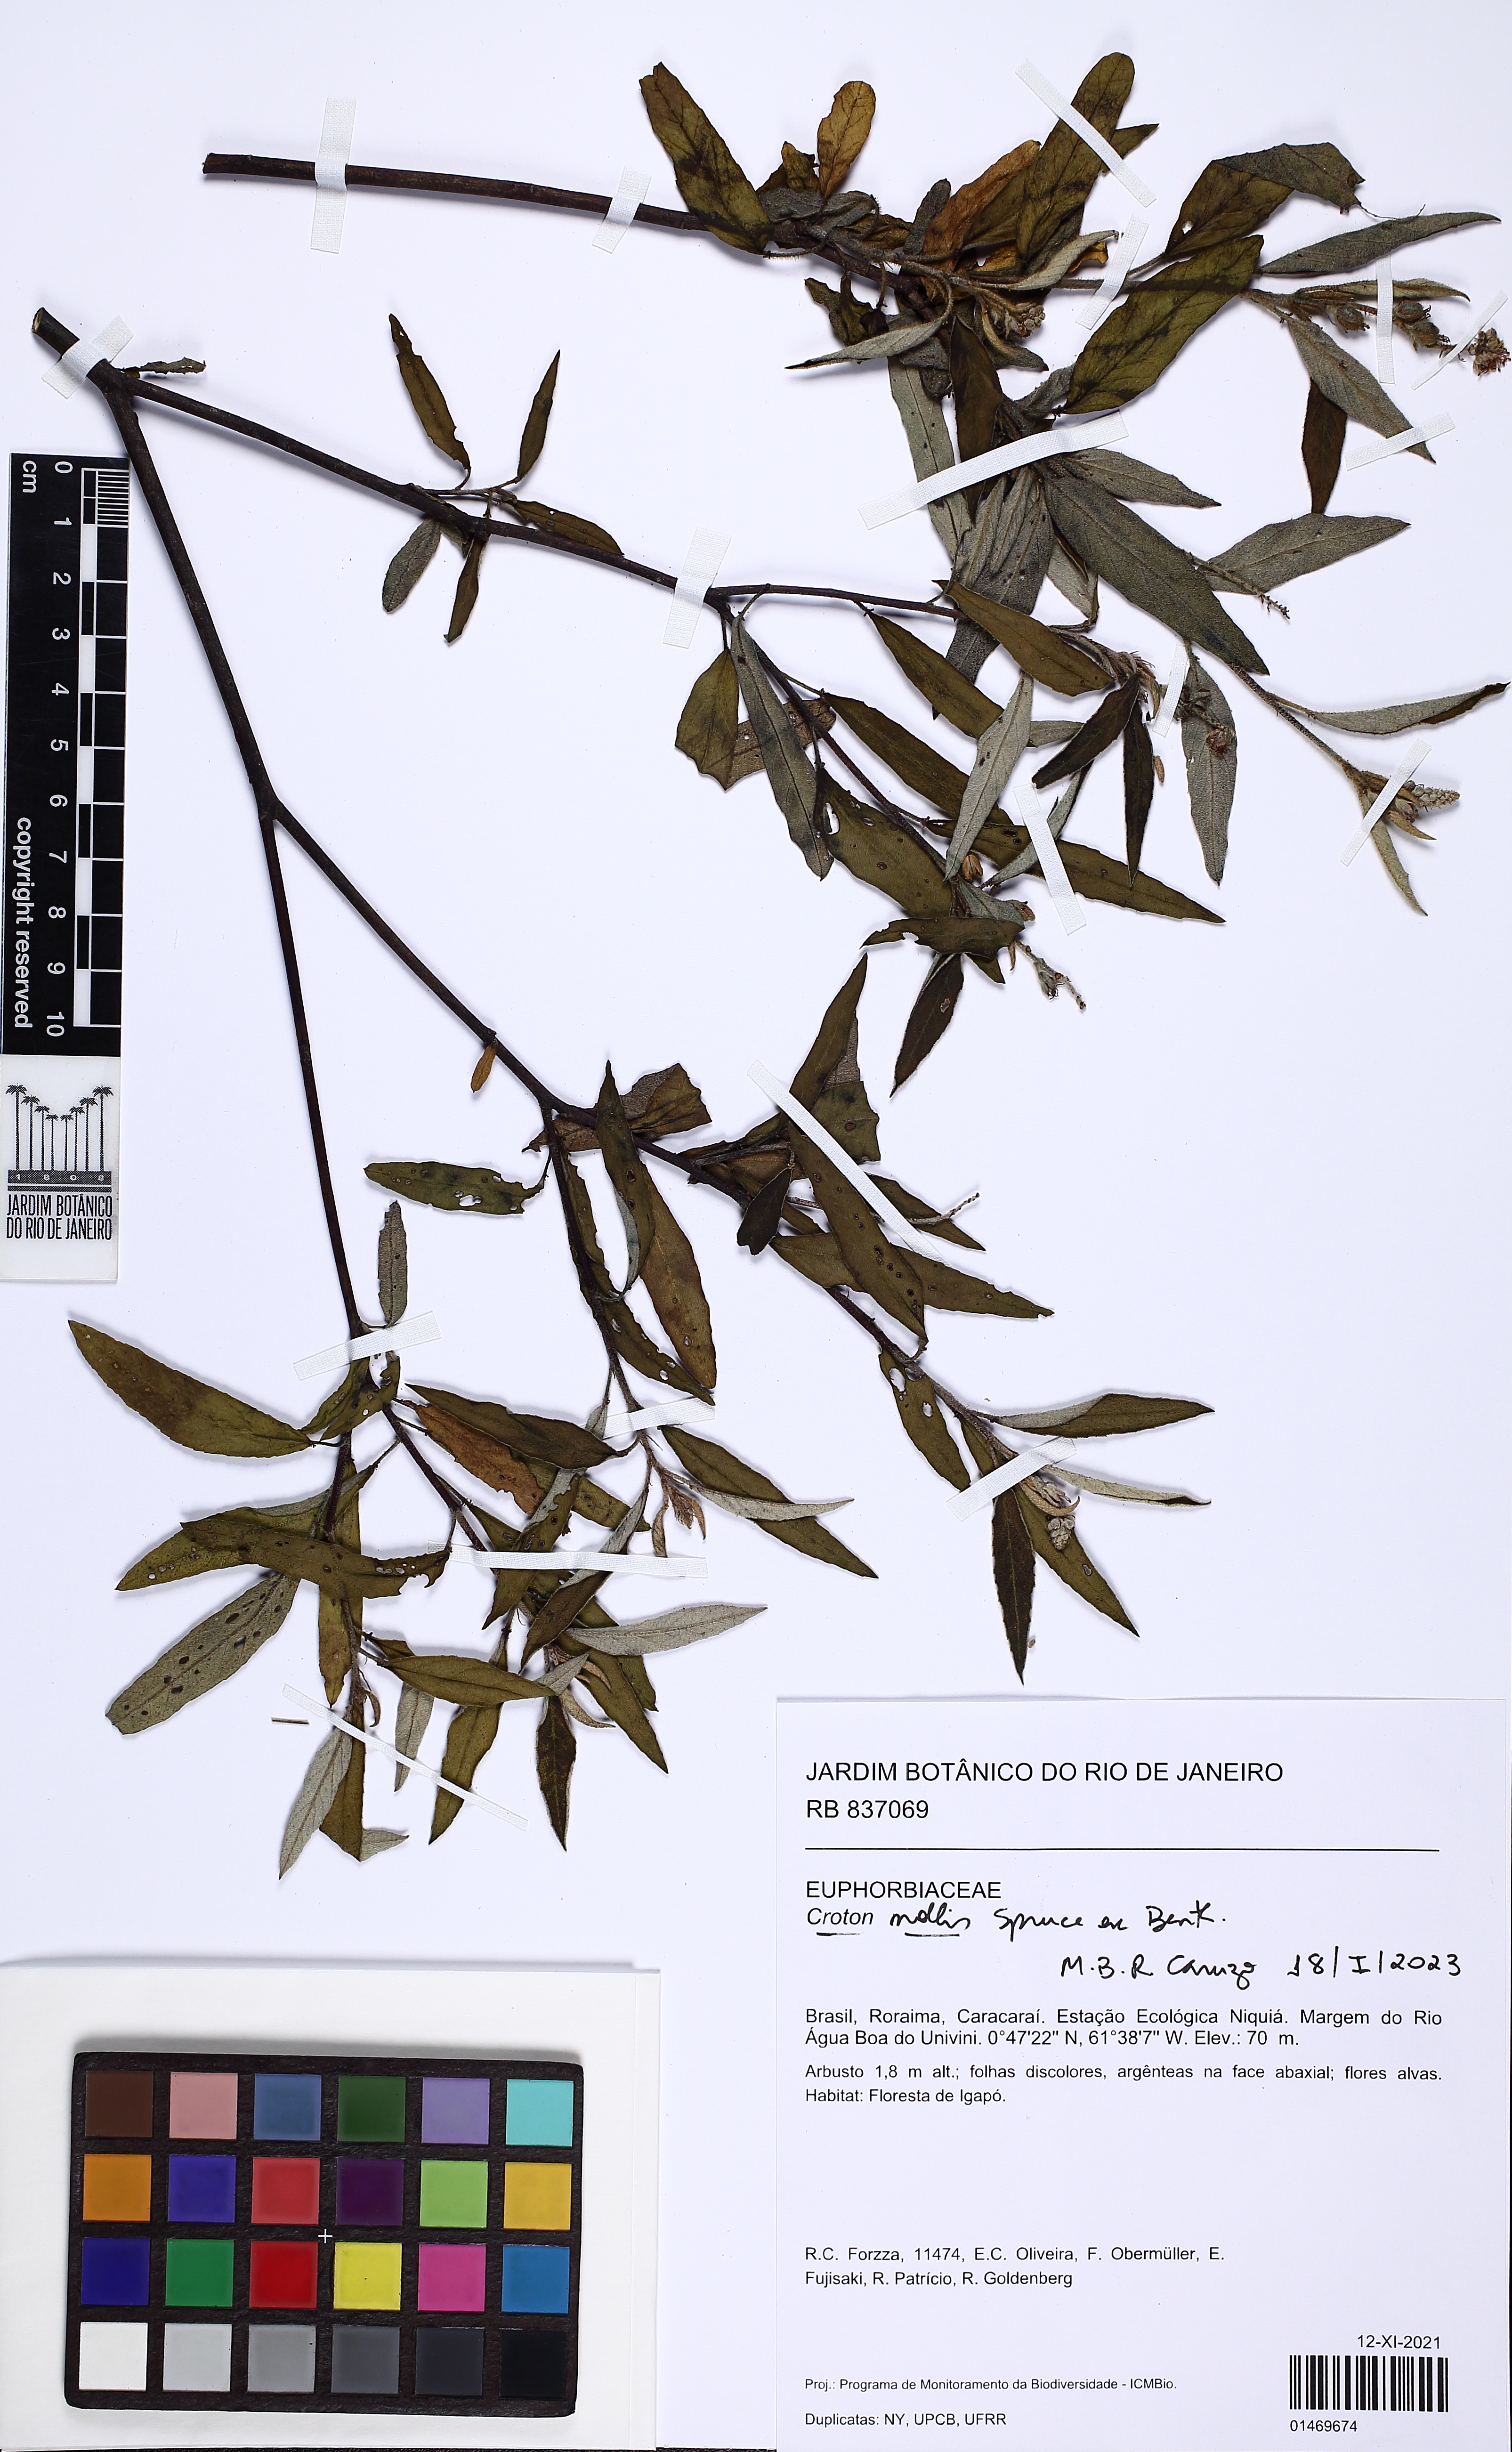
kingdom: Plantae
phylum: Tracheophyta
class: Magnoliopsida
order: Malpighiales
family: Euphorbiaceae
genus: Croton
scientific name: Croton mollis
